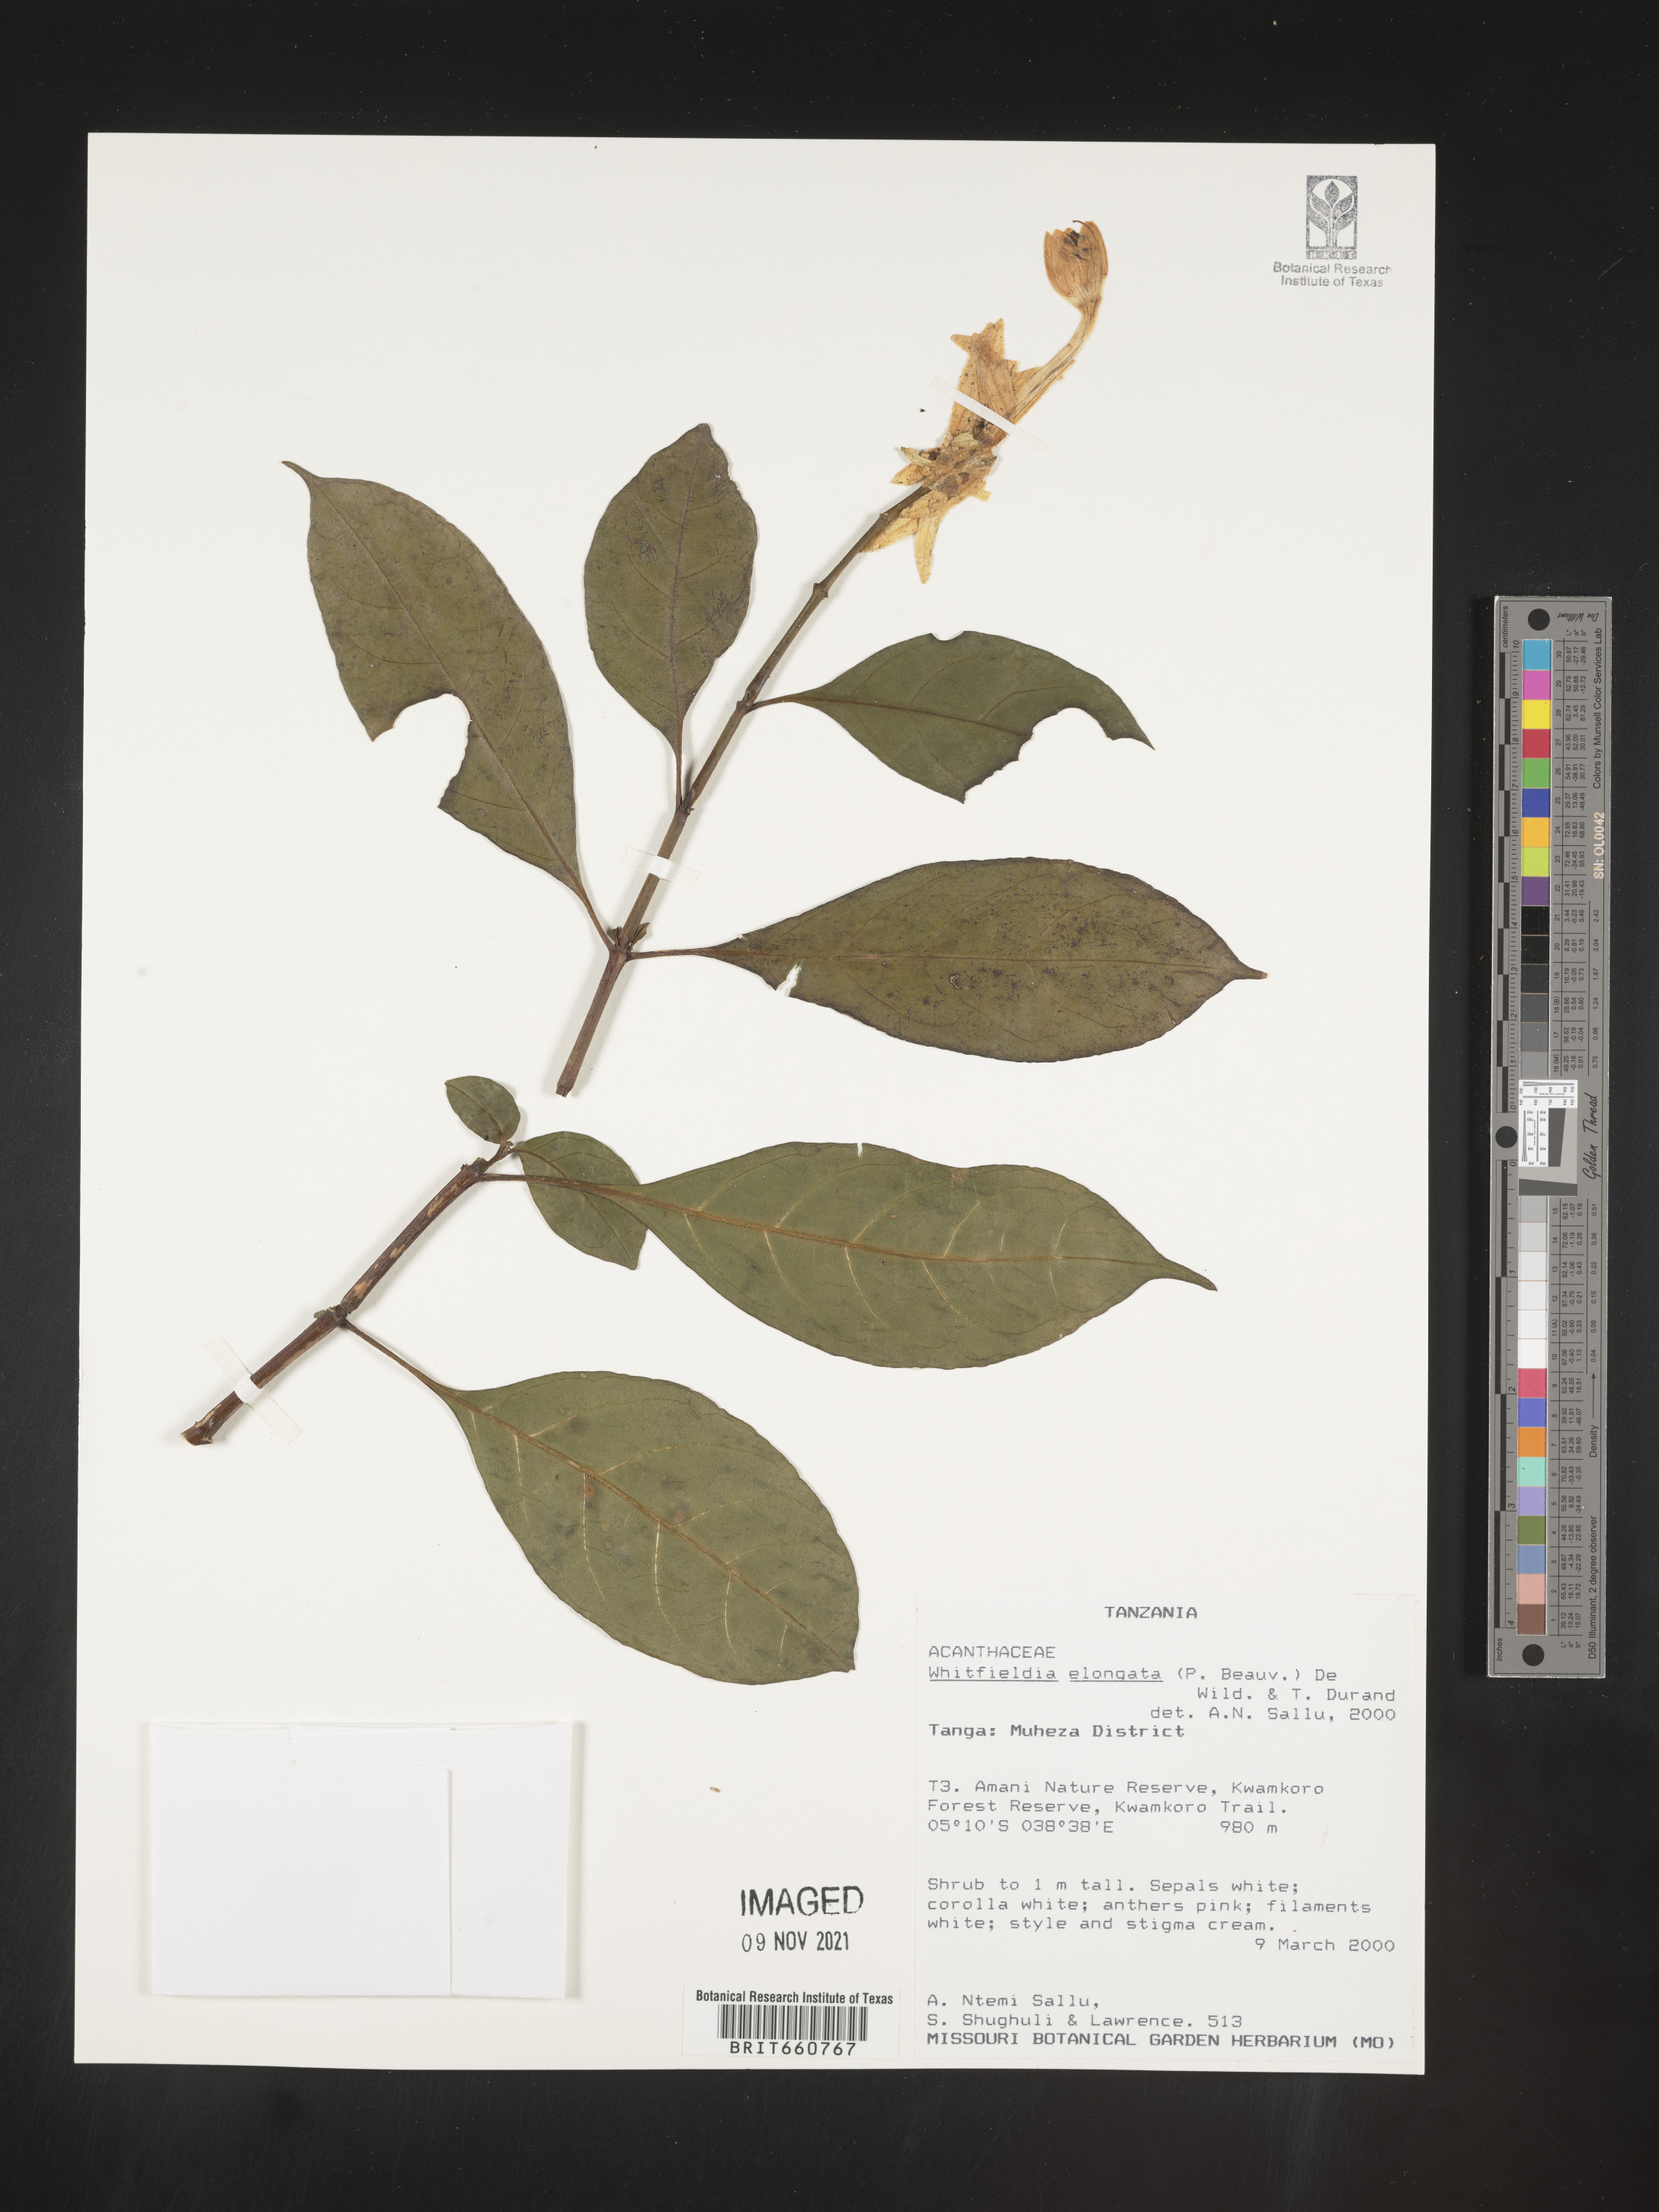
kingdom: Plantae
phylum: Tracheophyta
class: Magnoliopsida
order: Lamiales
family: Acanthaceae
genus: Whitfieldia
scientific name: Whitfieldia
